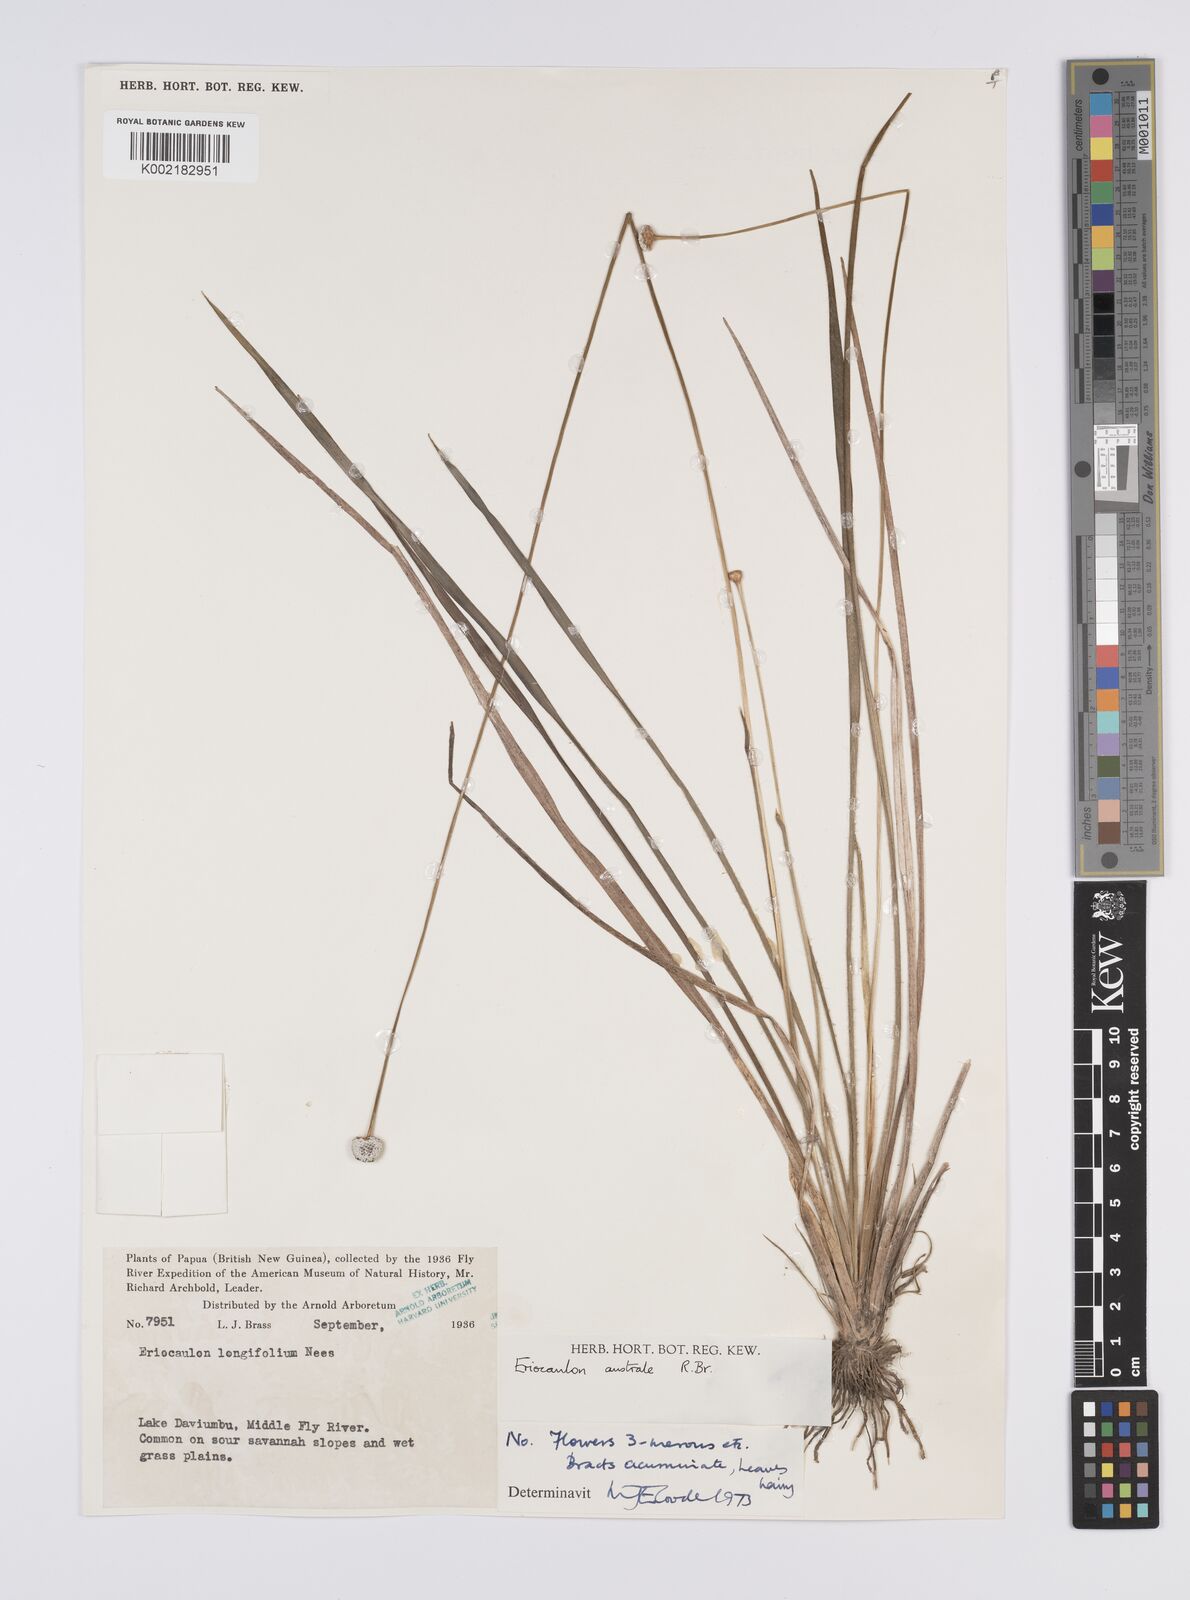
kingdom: Plantae
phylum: Tracheophyta
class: Liliopsida
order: Poales
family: Eriocaulaceae
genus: Eriocaulon
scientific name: Eriocaulon australe
